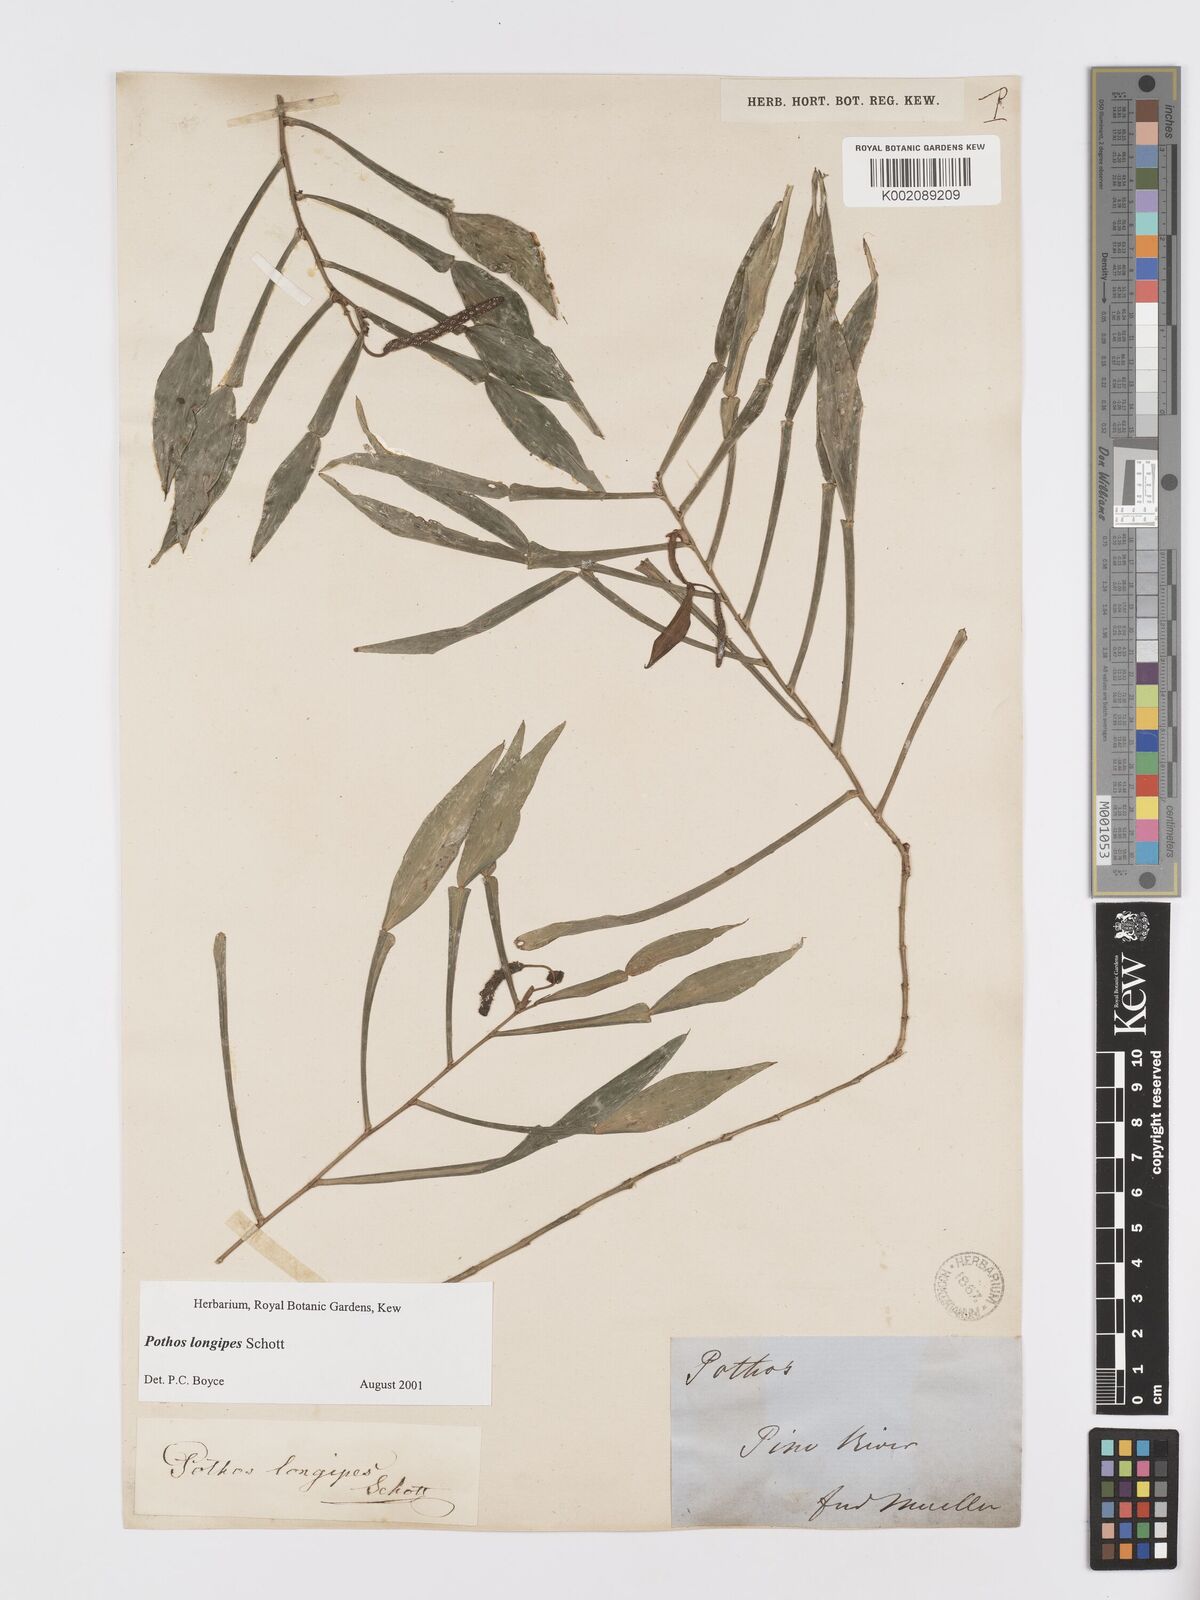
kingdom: Plantae
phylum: Tracheophyta
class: Liliopsida
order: Alismatales
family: Araceae
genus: Pothos
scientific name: Pothos longipes
